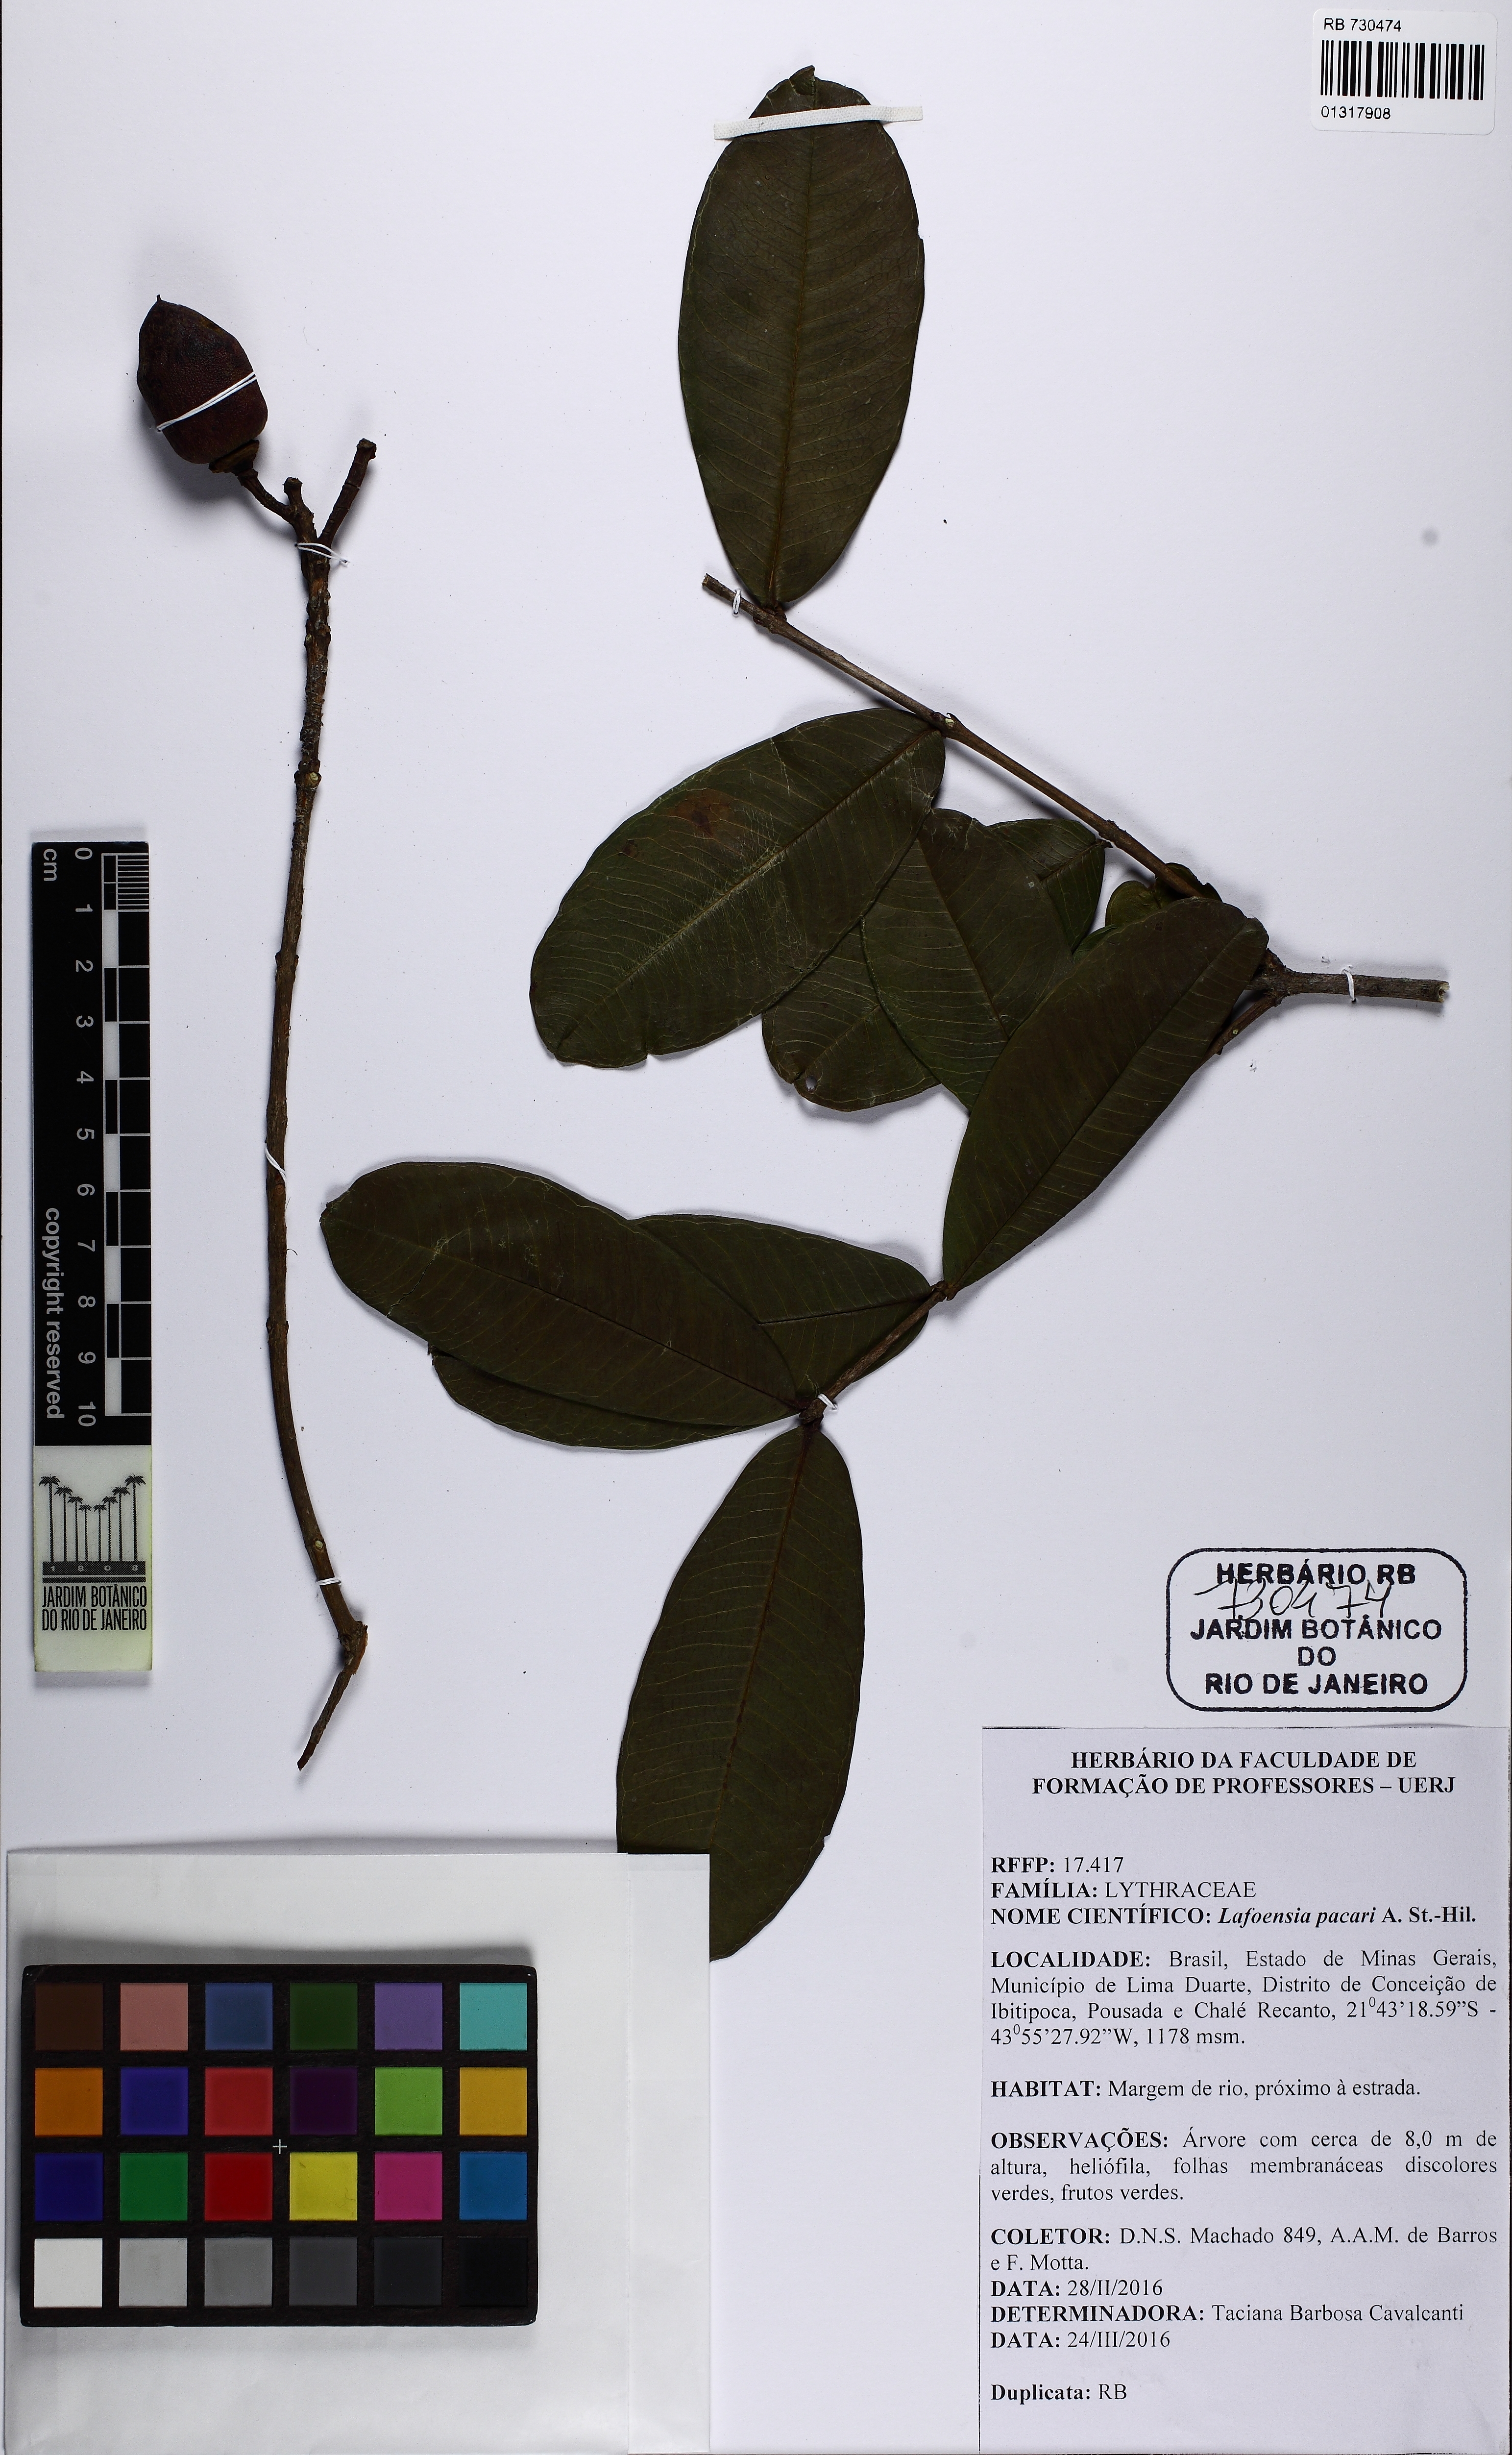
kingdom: Plantae
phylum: Tracheophyta
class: Magnoliopsida
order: Myrtales
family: Lythraceae
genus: Lafoensia
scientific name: Lafoensia pacari
